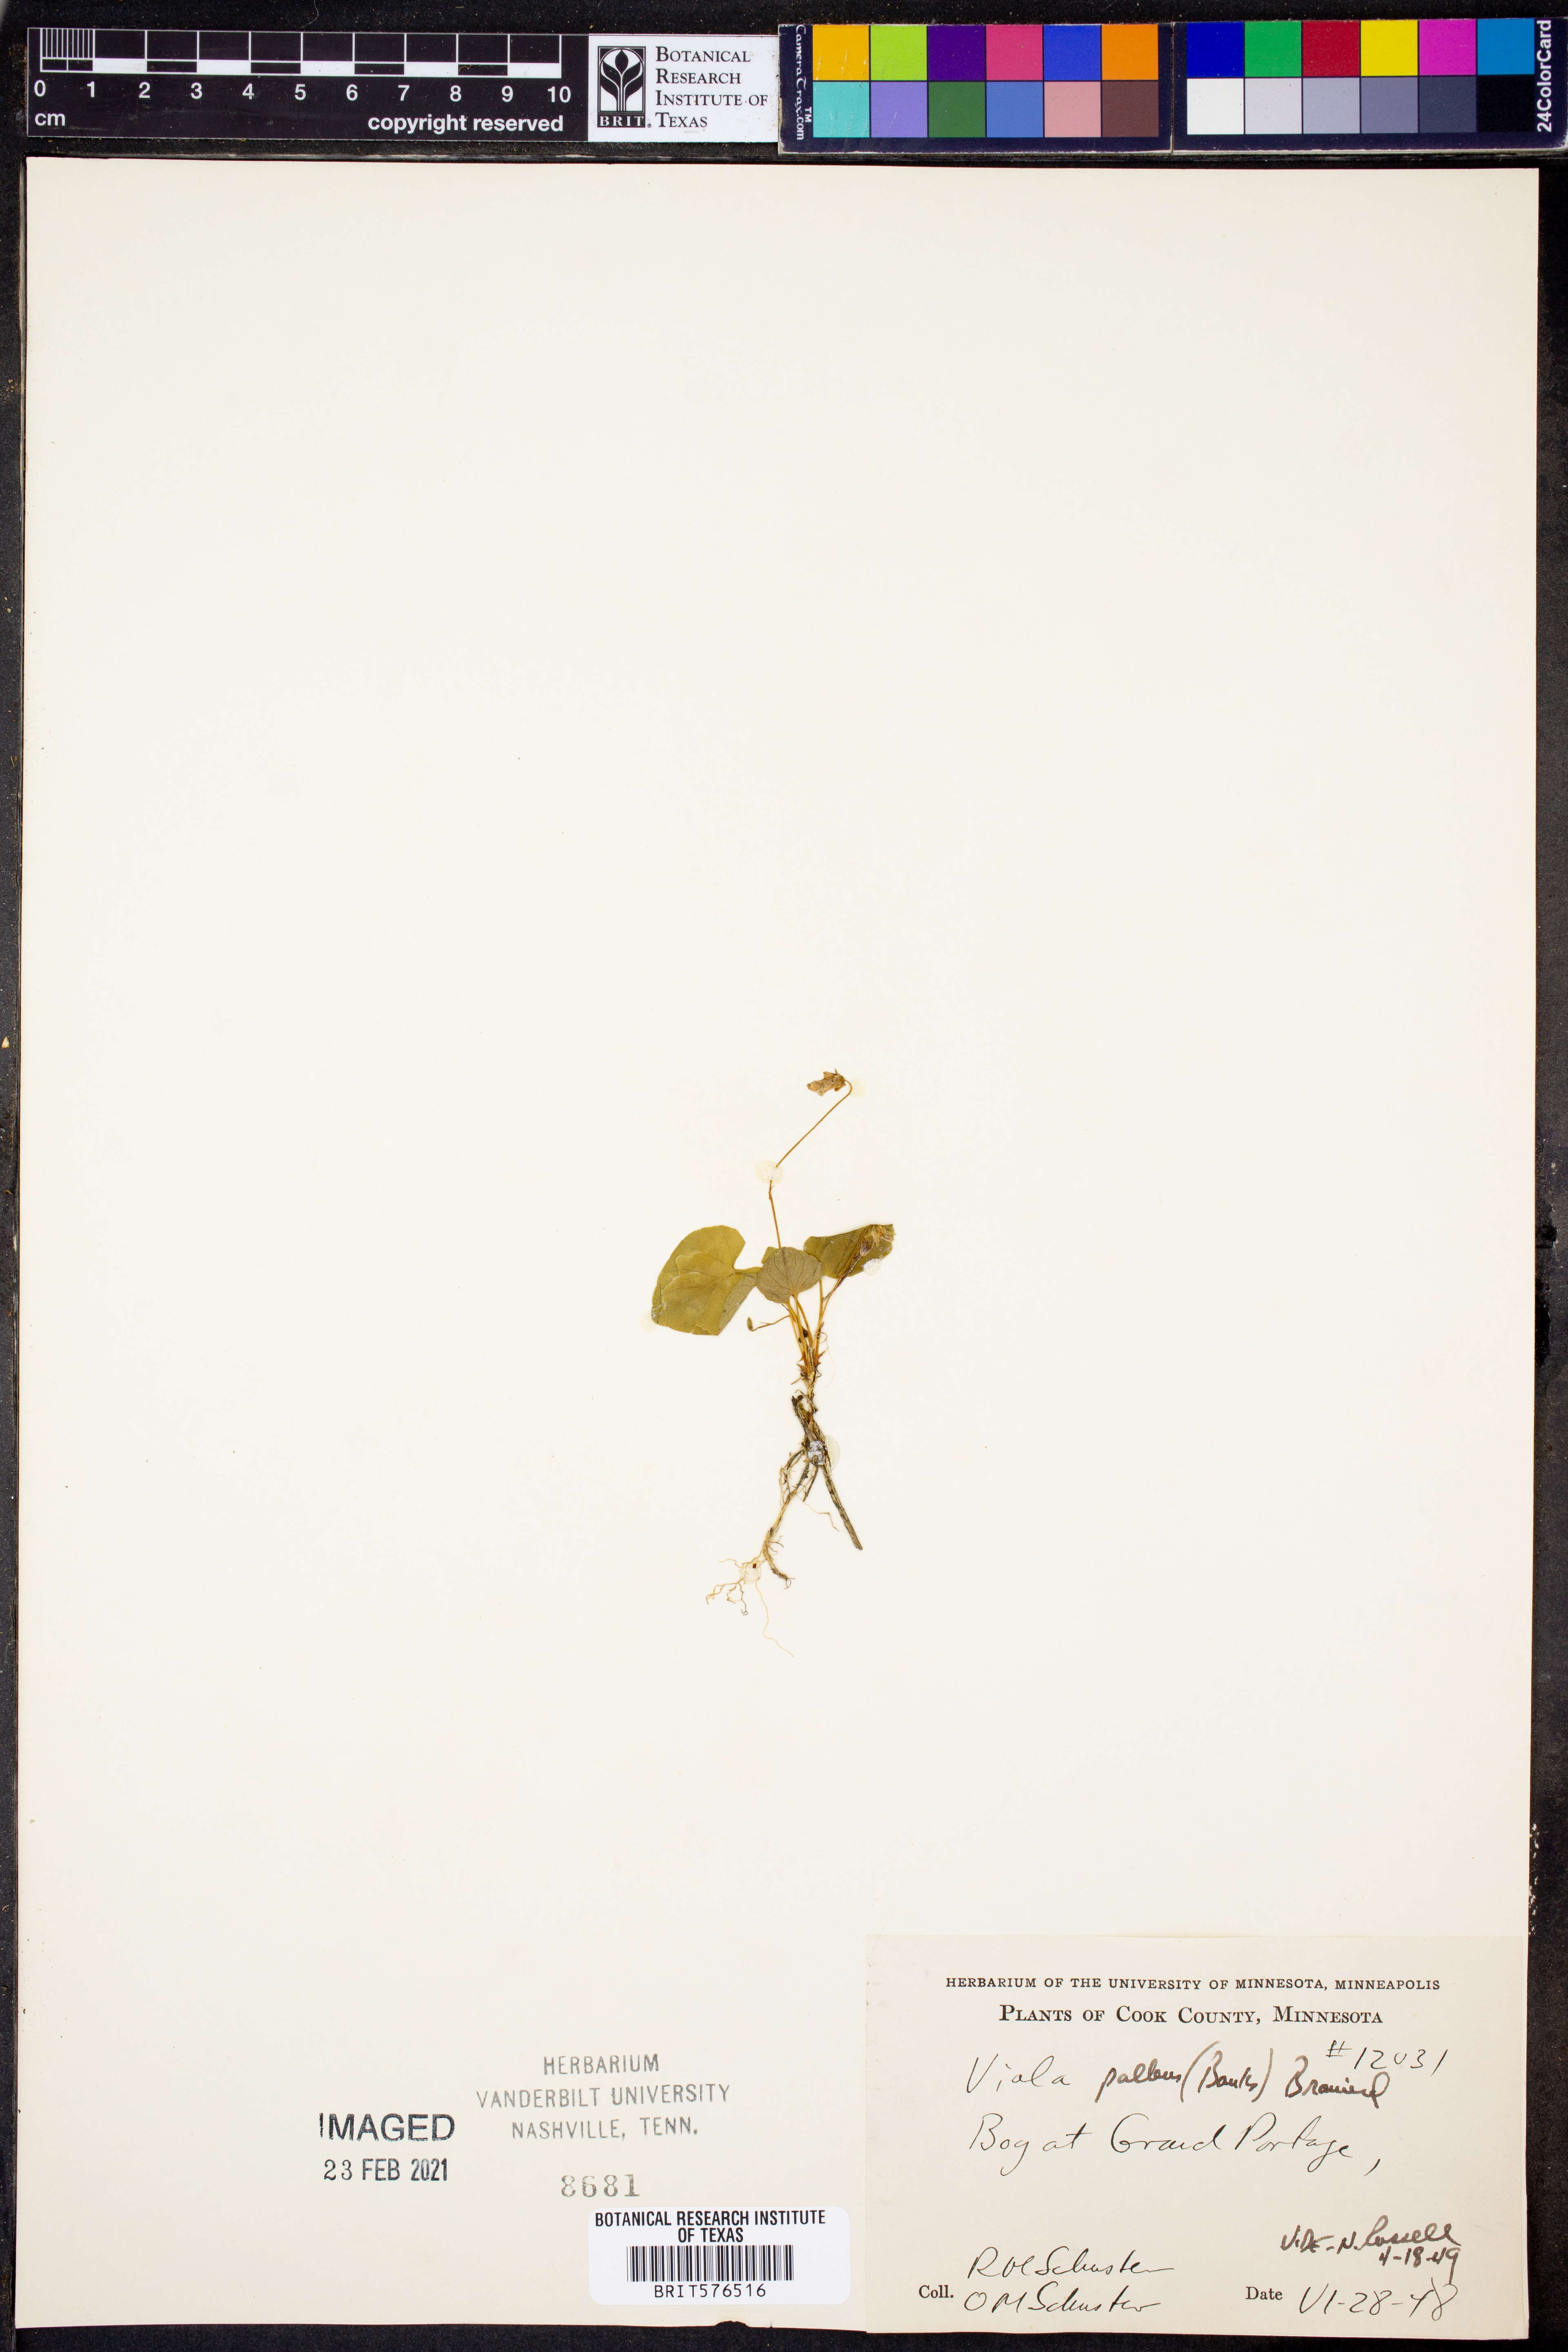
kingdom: Plantae
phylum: Tracheophyta
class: Magnoliopsida
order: Malpighiales
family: Violaceae
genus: Viola
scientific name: Viola palustris
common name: Marsh violet
